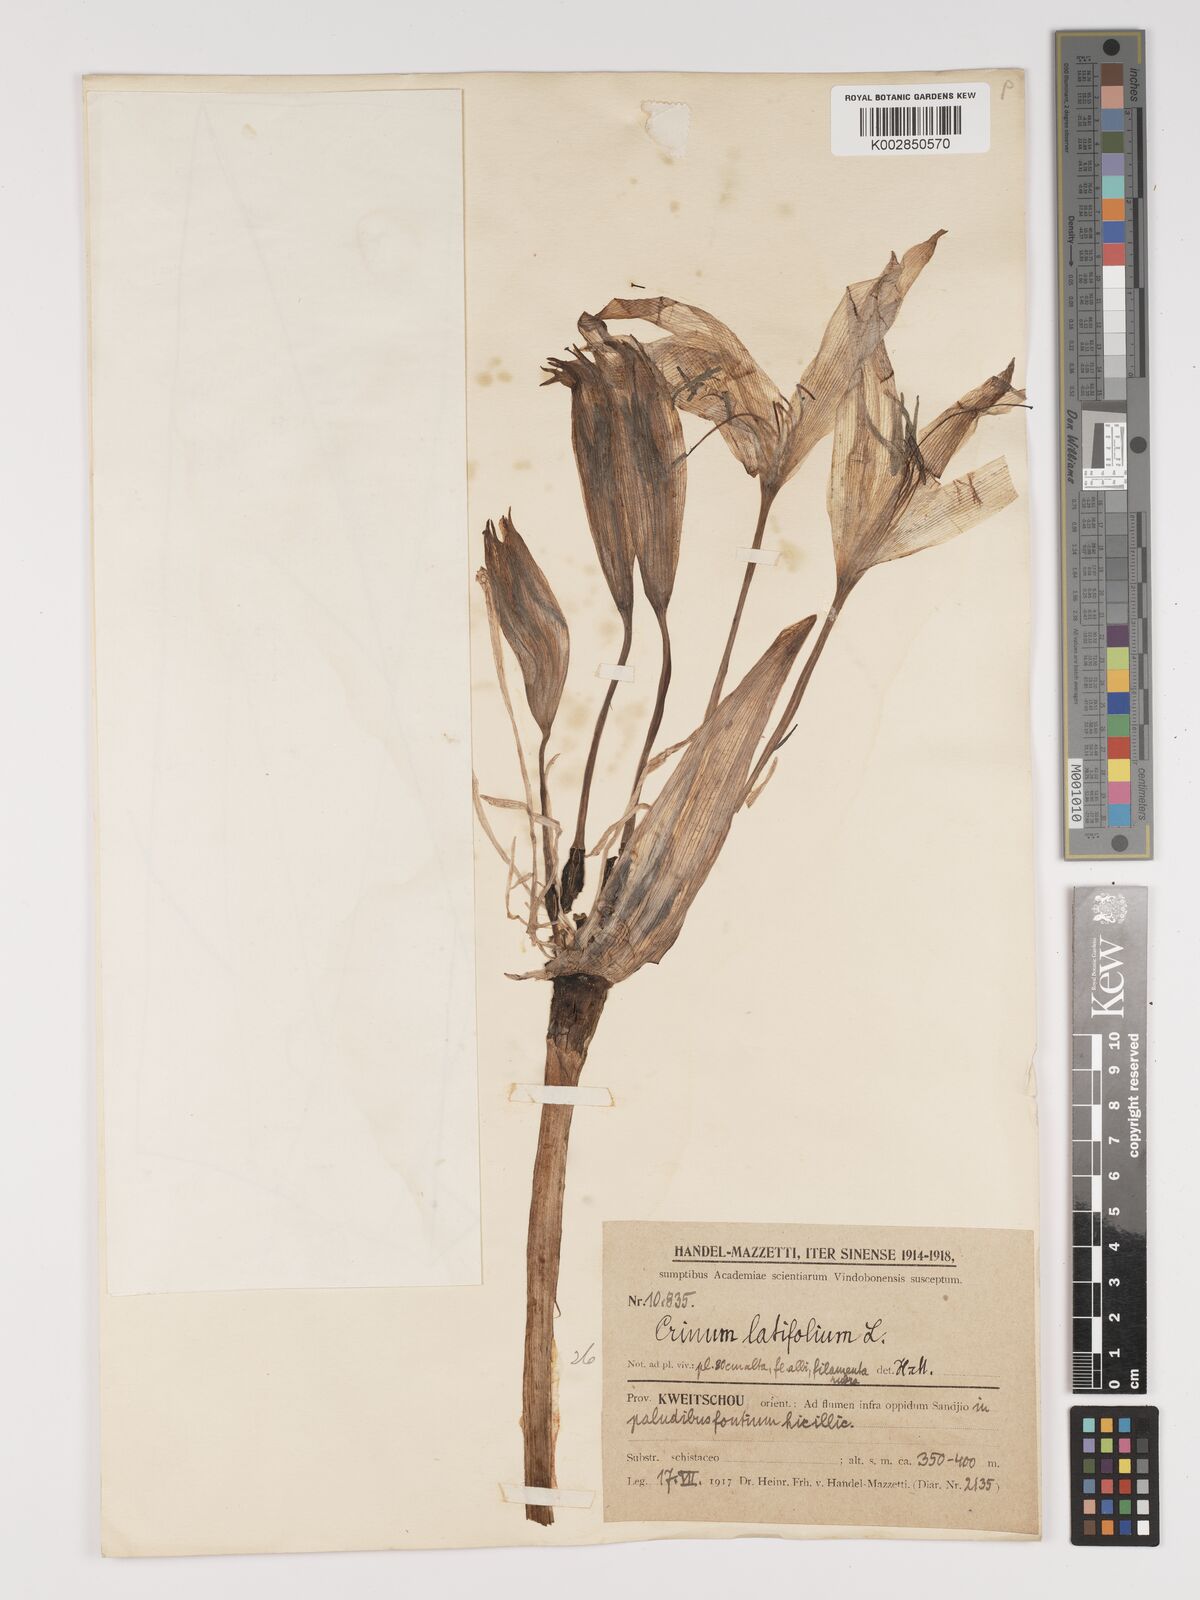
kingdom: Plantae
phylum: Tracheophyta
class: Liliopsida
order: Asparagales
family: Amaryllidaceae
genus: Crinum
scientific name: Crinum latifolium
